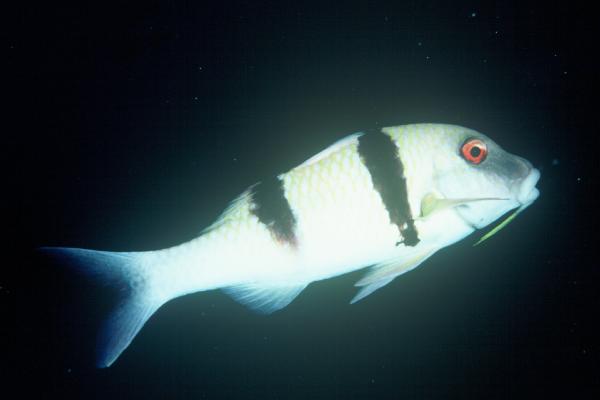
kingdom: Animalia
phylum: Chordata
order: Perciformes
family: Mullidae
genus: Parupeneus
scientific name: Parupeneus trifasciatus
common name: Doublebar goatfish
